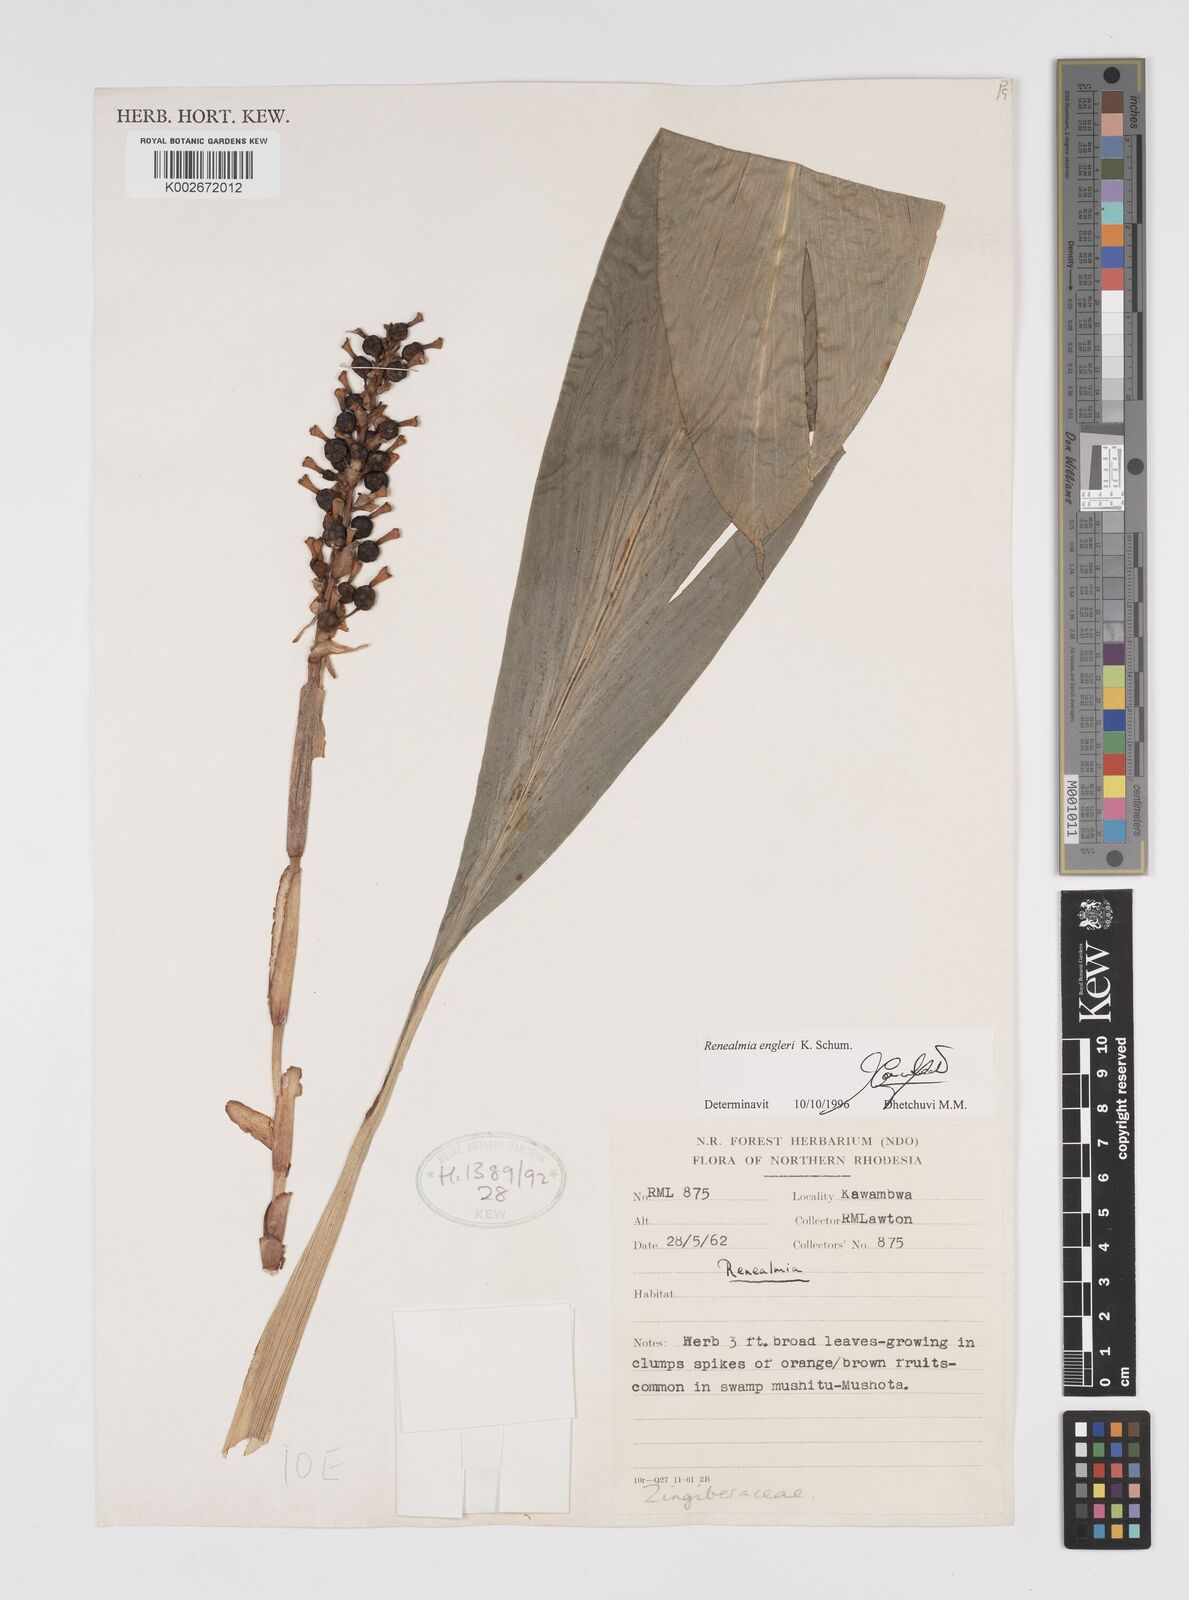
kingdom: Plantae
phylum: Tracheophyta
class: Liliopsida
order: Zingiberales
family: Zingiberaceae
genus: Renealmia
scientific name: Renealmia engleri
